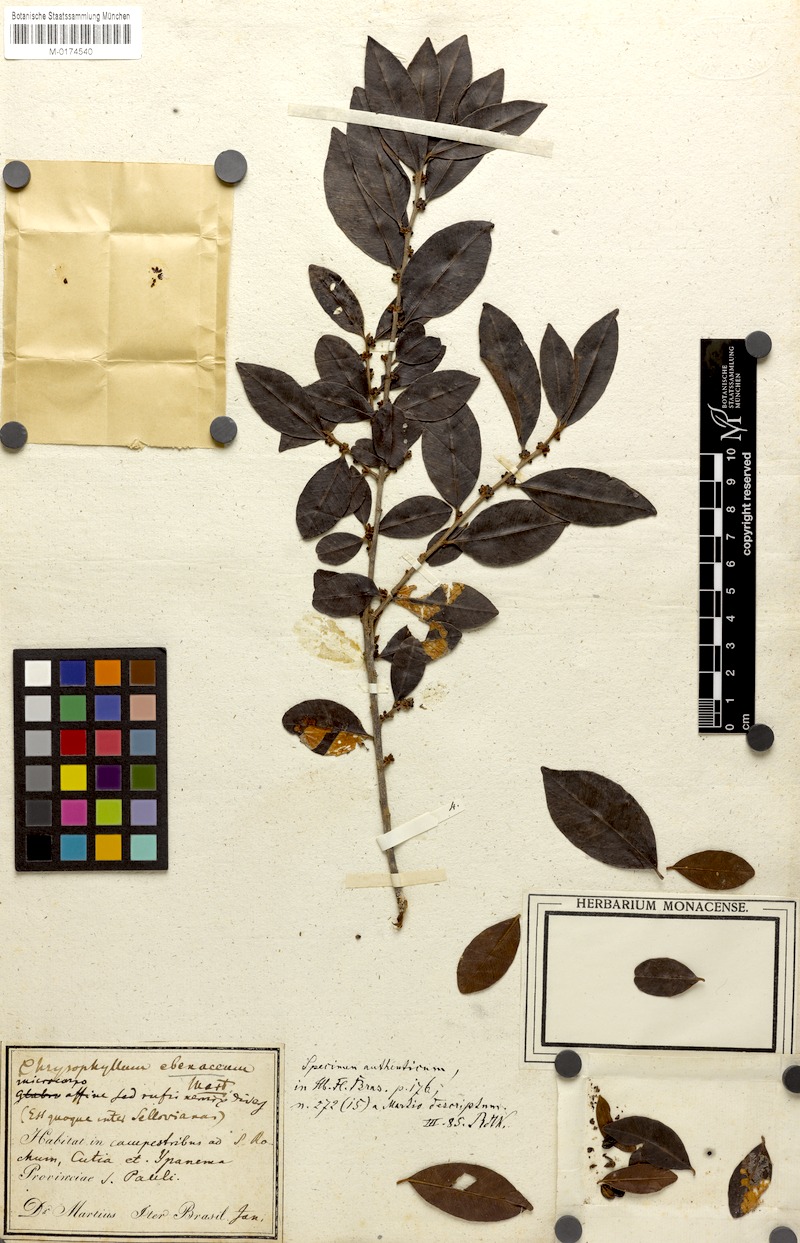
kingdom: Plantae
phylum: Tracheophyta
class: Magnoliopsida
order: Ericales
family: Sapotaceae
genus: Chrysophyllum
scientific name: Chrysophyllum marginatum
